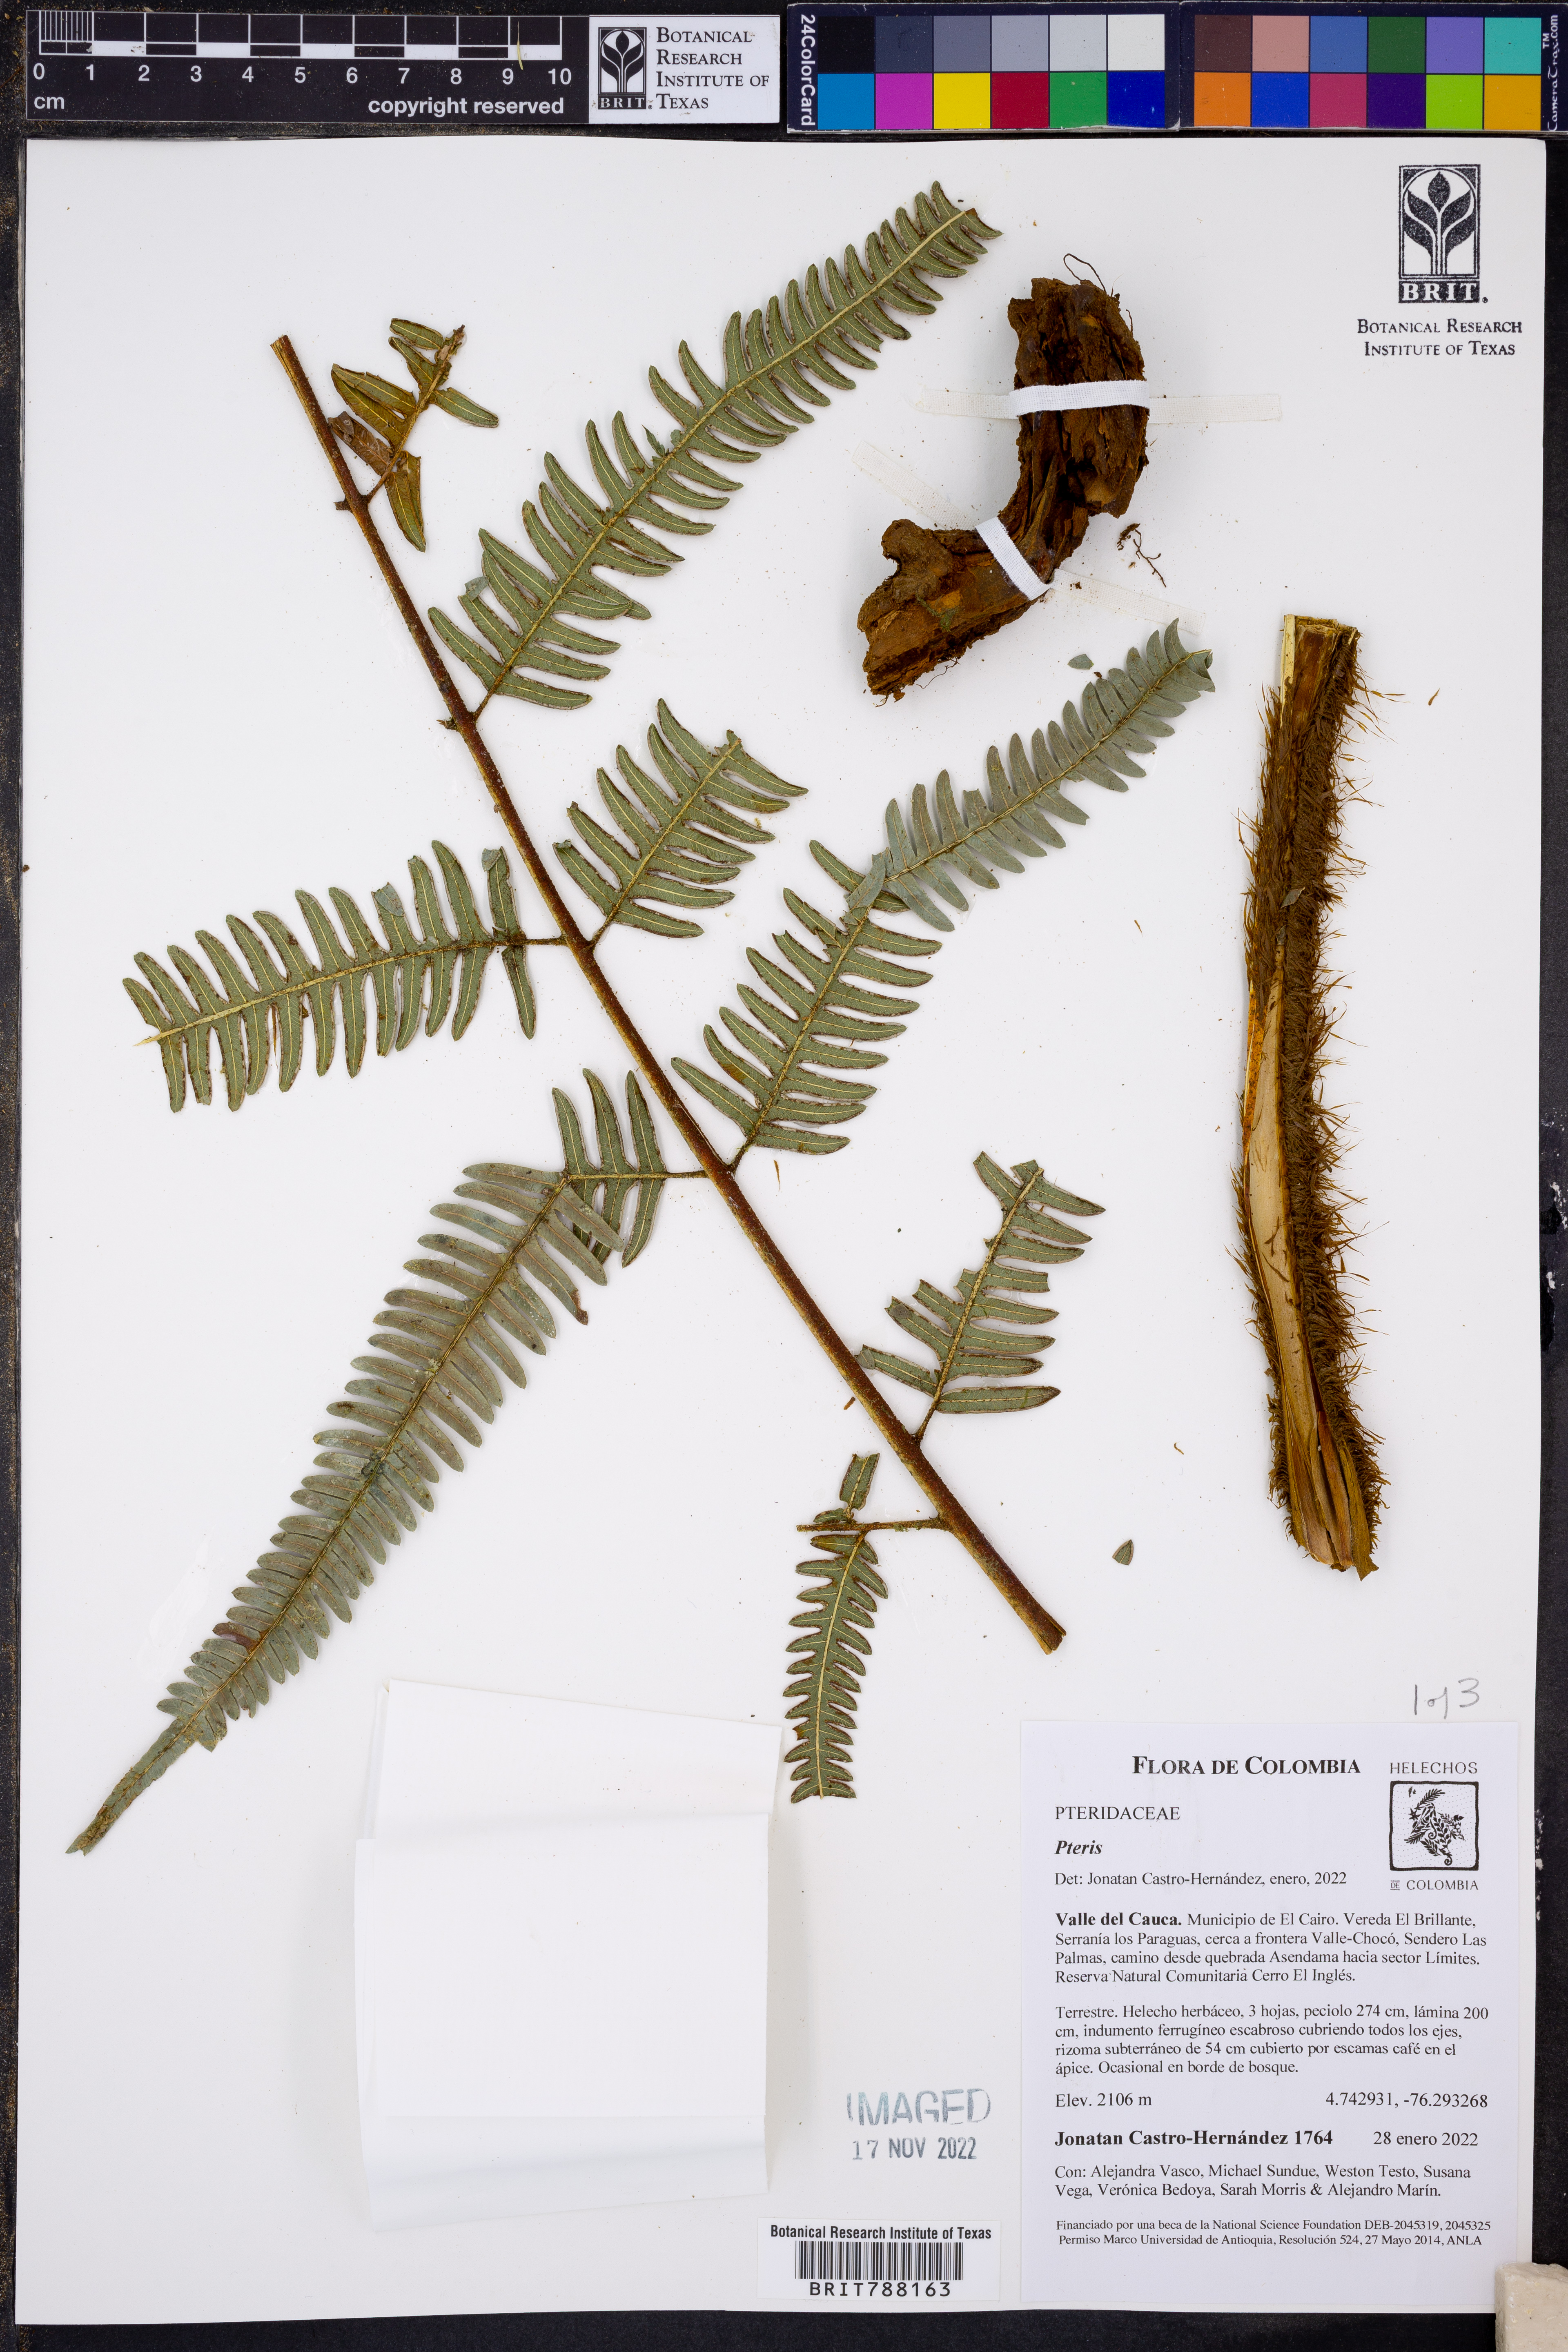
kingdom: Plantae
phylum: Tracheophyta
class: Polypodiopsida
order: Polypodiales
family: Pteridaceae
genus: Pteris
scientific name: Pteris longipetiolulata
